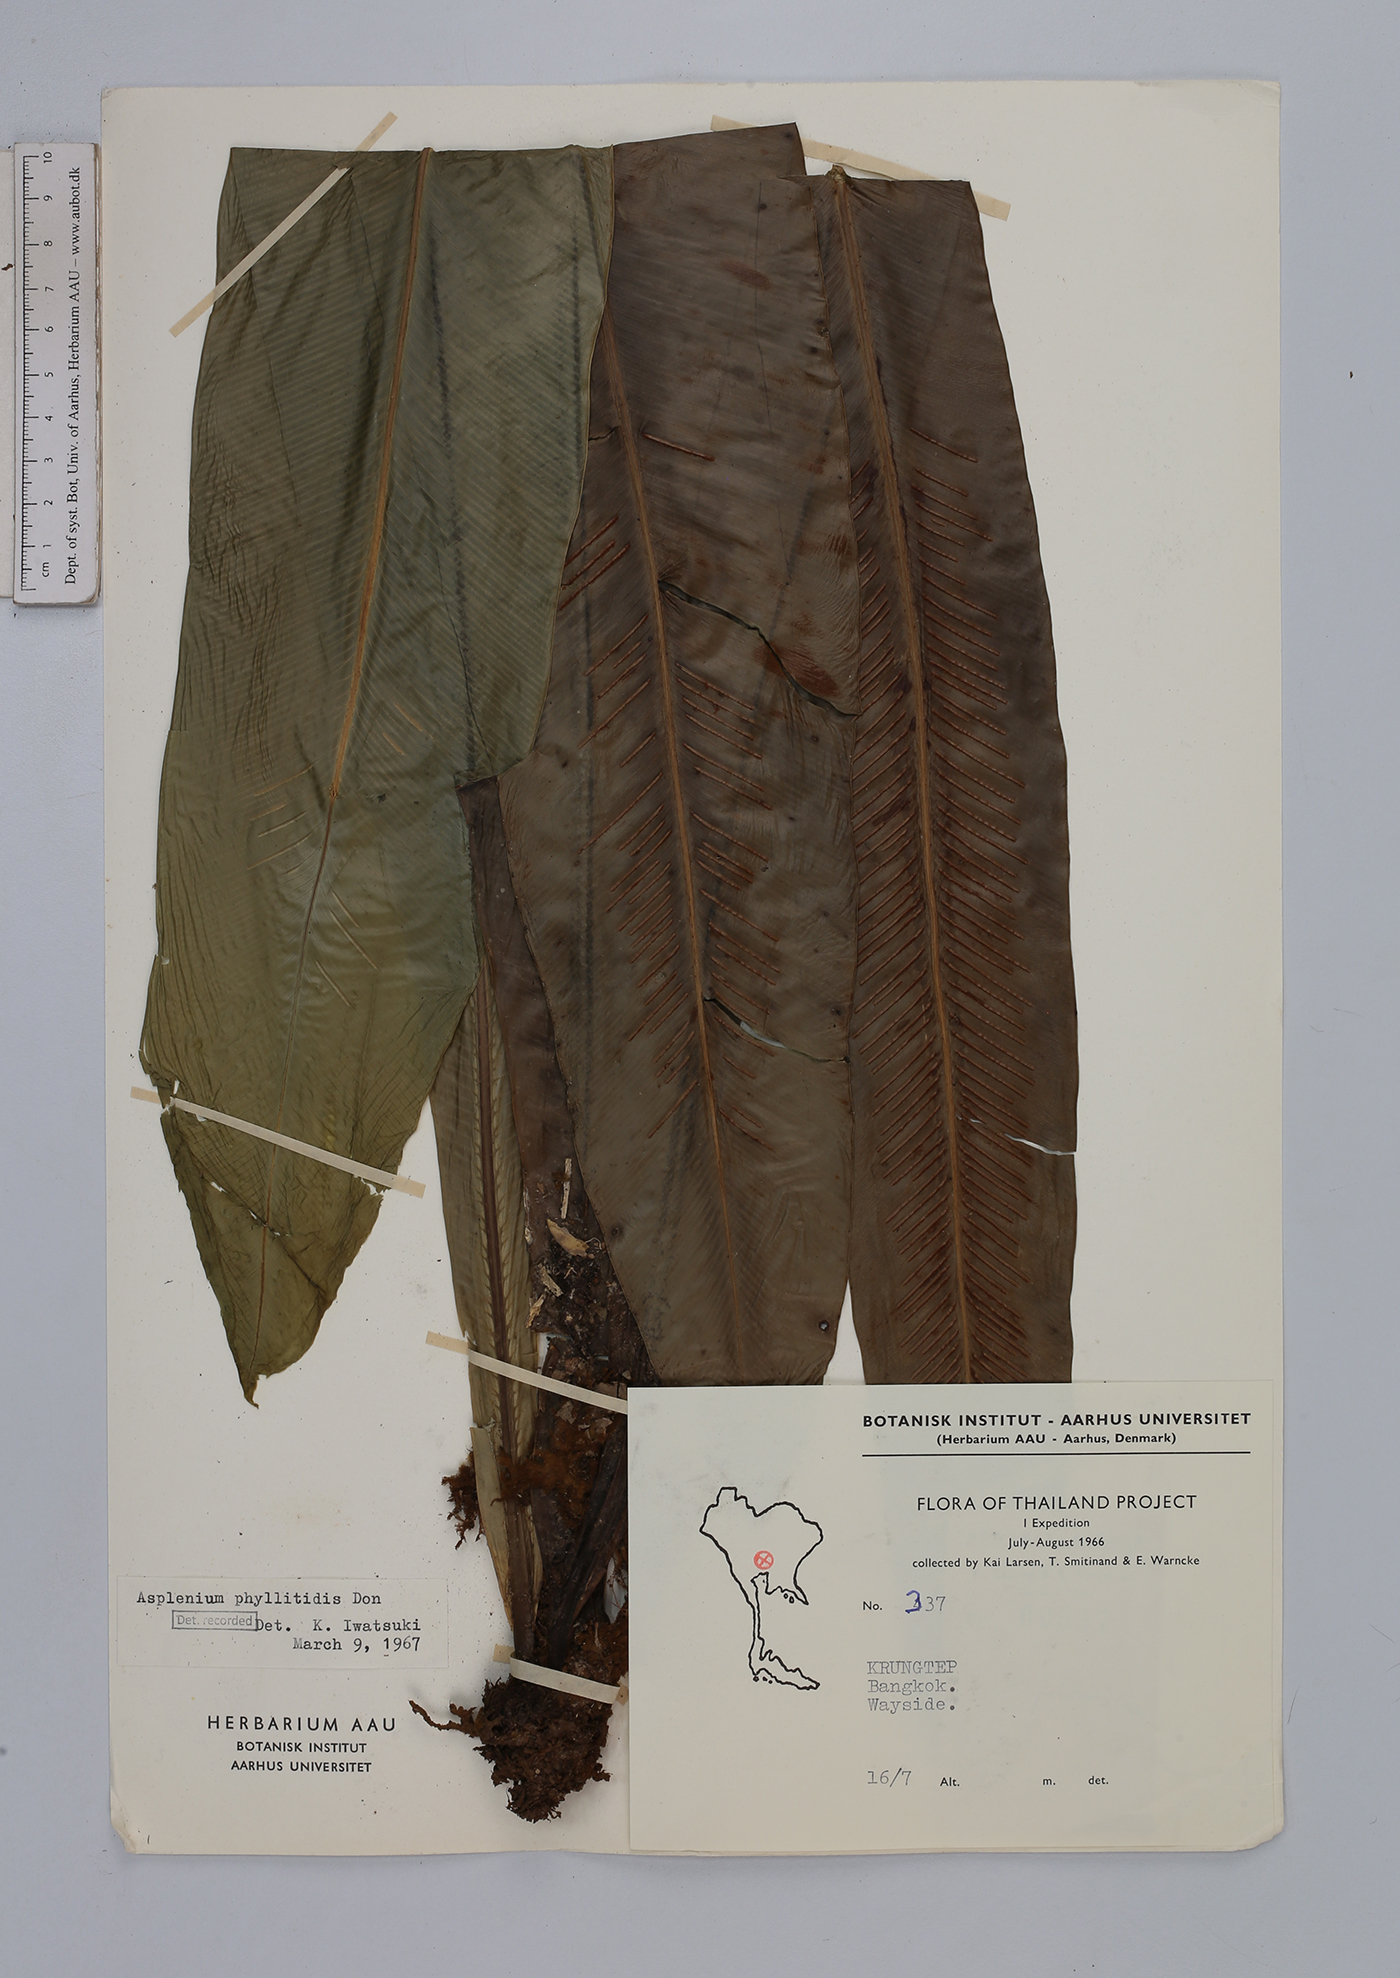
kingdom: Plantae
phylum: Tracheophyta
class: Polypodiopsida
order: Polypodiales
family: Aspleniaceae
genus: Asplenium
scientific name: Asplenium phyllitidis
